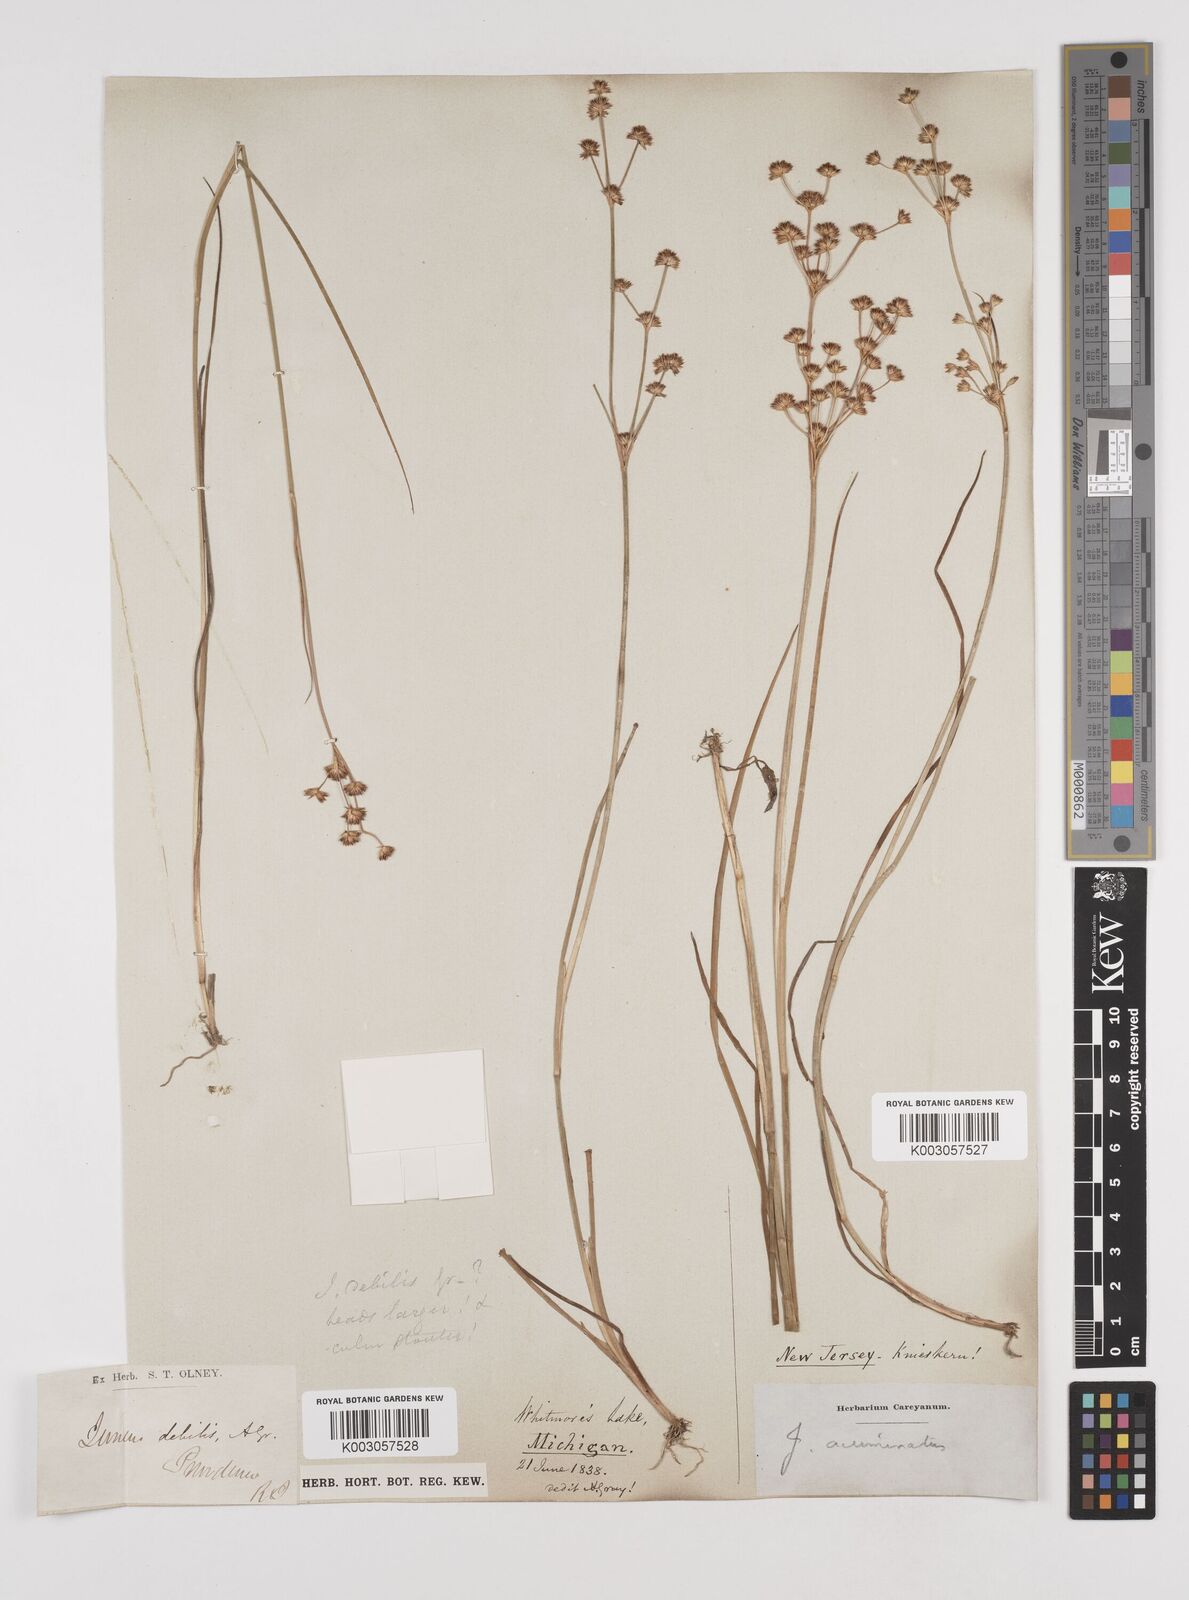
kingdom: Plantae
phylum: Tracheophyta
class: Liliopsida
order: Poales
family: Juncaceae
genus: Juncus
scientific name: Juncus acuminatus
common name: Knotty-leaved rush
